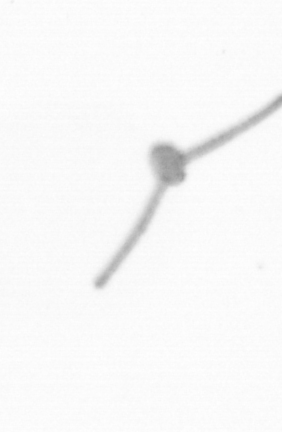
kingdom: Chromista
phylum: Ochrophyta
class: Bacillariophyceae
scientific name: Bacillariophyceae
